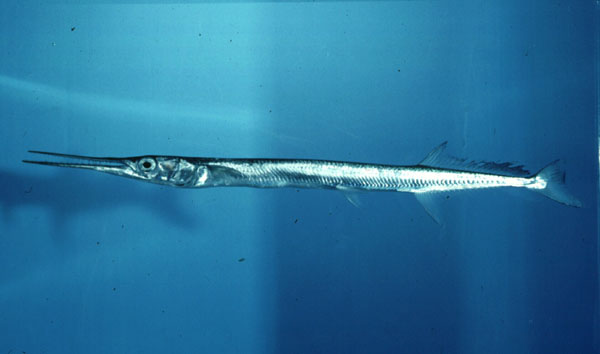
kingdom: Animalia
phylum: Chordata
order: Beloniformes
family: Belonidae
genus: Tylosurus
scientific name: Tylosurus crocodilus
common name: Houndfish
